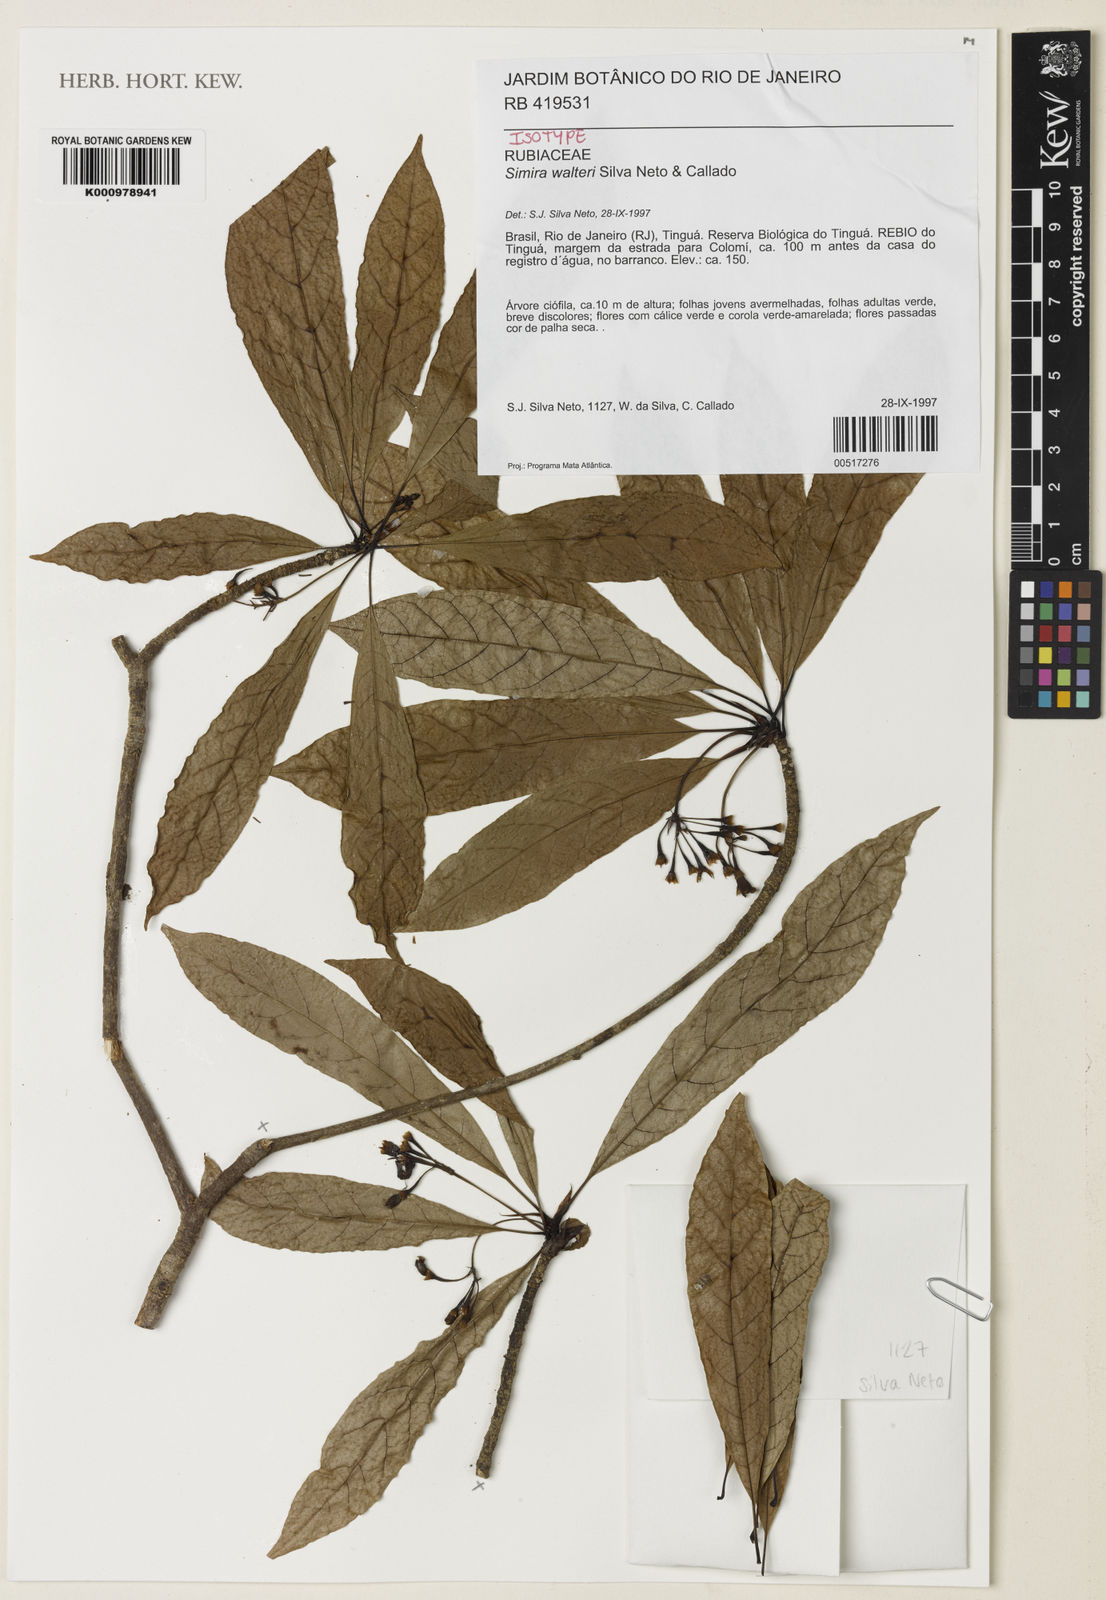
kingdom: Plantae
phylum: Tracheophyta
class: Magnoliopsida
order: Gentianales
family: Rubiaceae
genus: Simira
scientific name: Simira walteri
